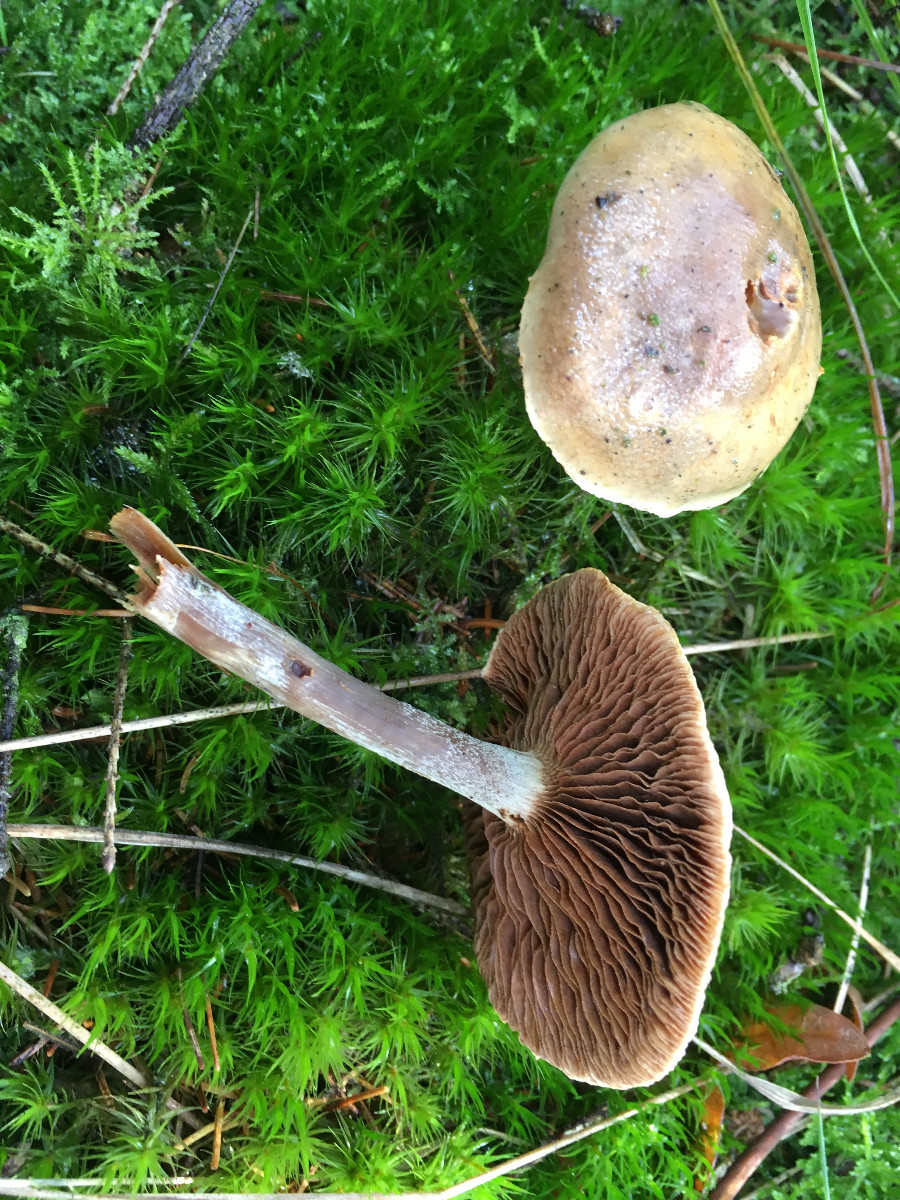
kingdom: Fungi
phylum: Basidiomycota
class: Agaricomycetes
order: Agaricales
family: Cortinariaceae
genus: Cortinarius
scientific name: Cortinarius
